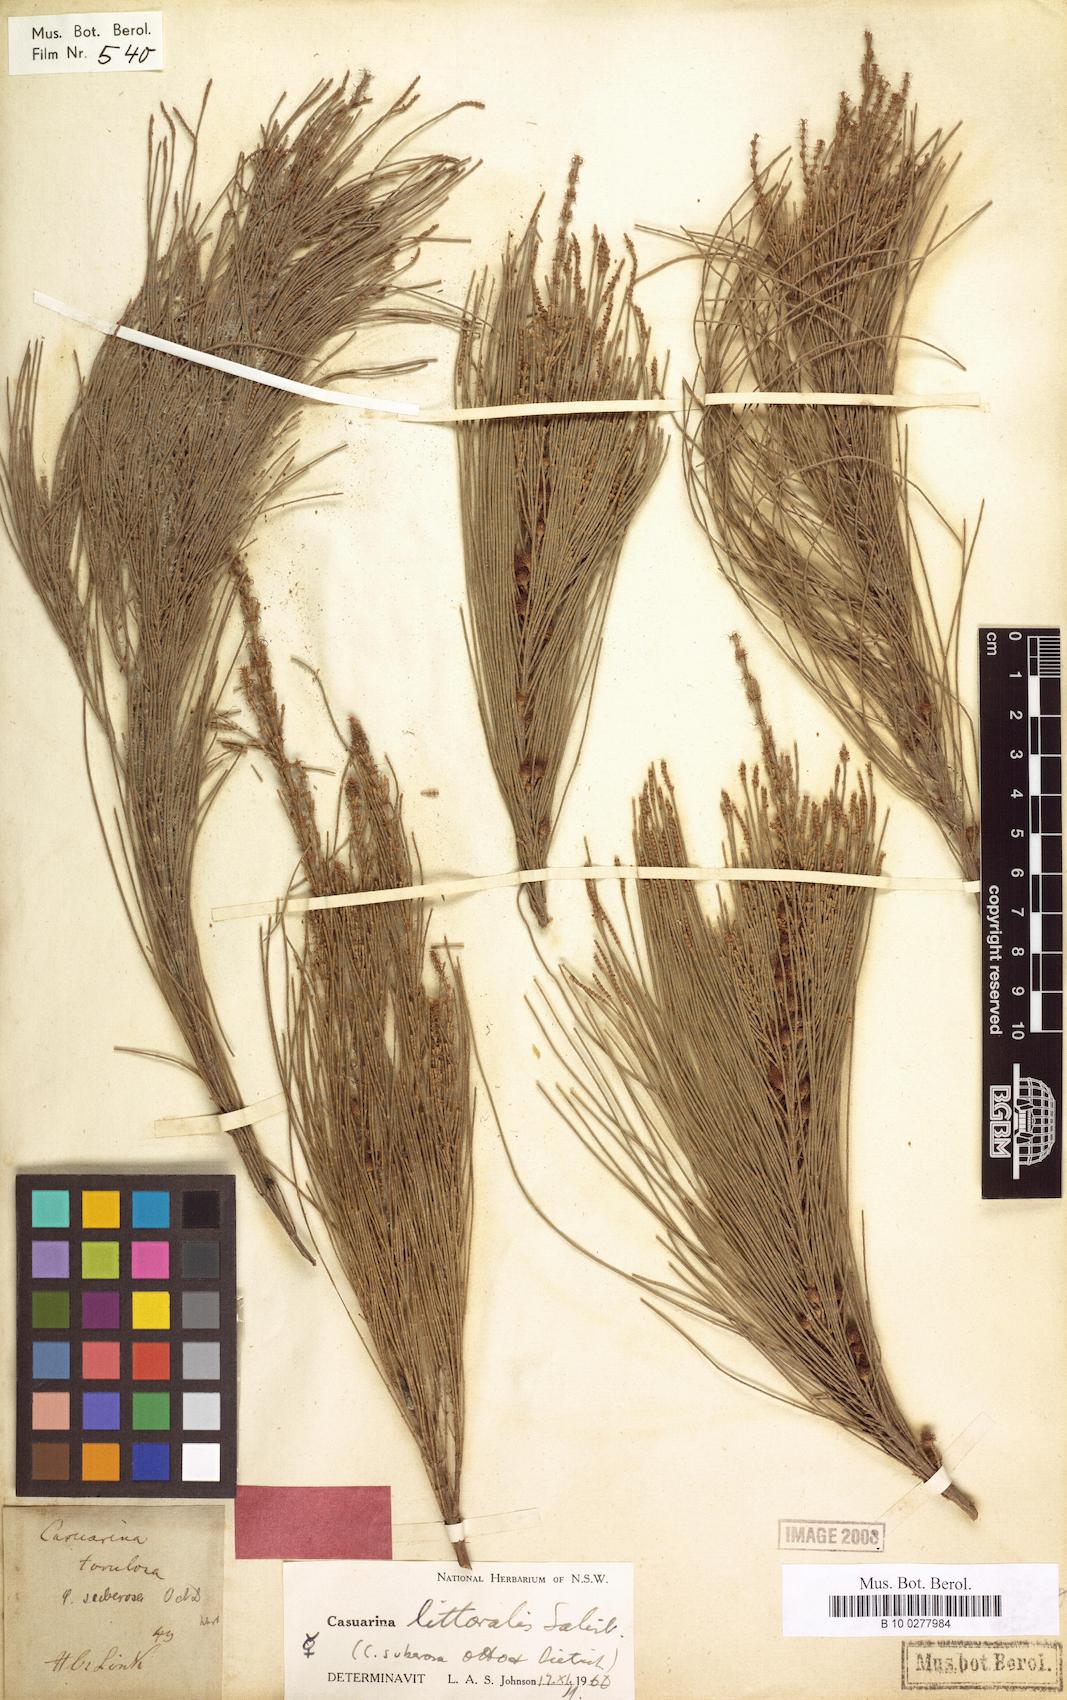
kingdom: Plantae
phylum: Tracheophyta
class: Magnoliopsida
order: Fagales
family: Casuarinaceae
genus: Allocasuarina
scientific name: Allocasuarina littoralis
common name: Black she-oak
